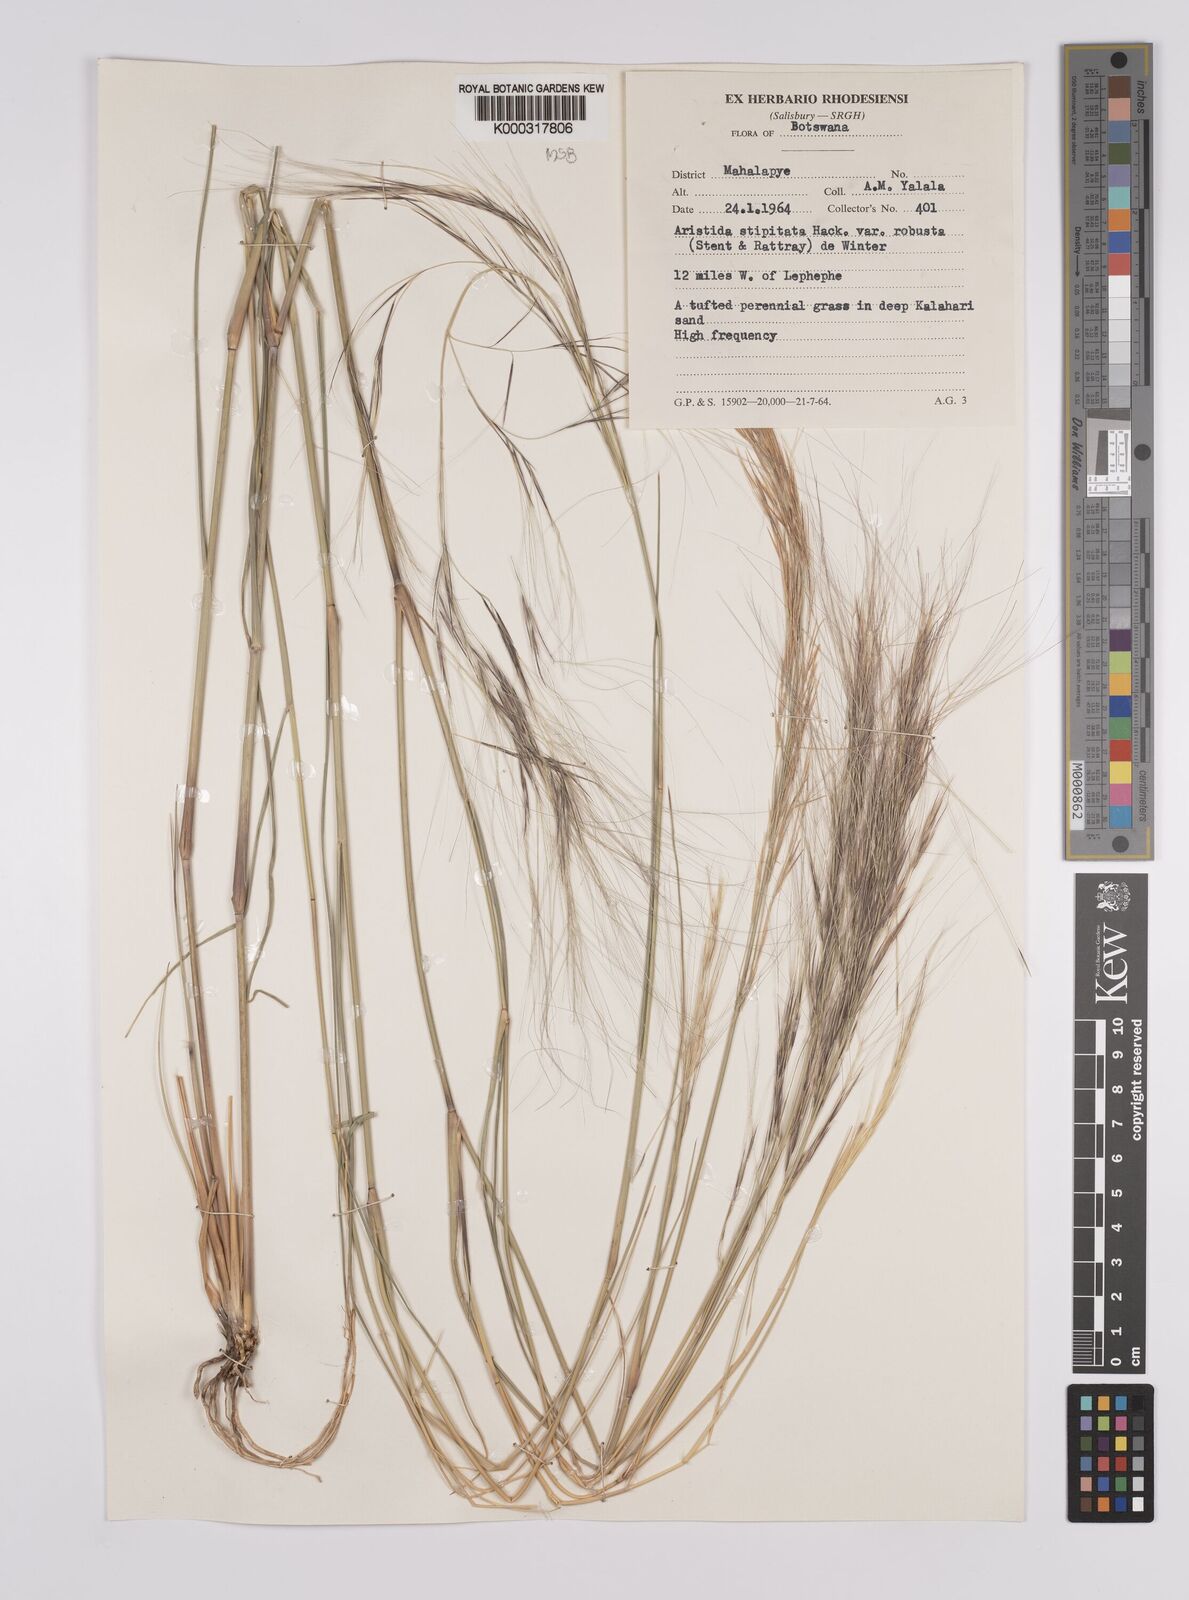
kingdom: Plantae
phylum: Tracheophyta
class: Liliopsida
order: Poales
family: Poaceae
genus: Aristida
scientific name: Aristida stipitata
